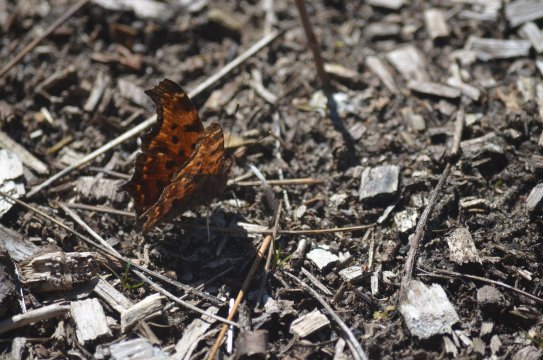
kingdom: Animalia
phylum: Arthropoda
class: Insecta
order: Lepidoptera
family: Nymphalidae
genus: Polygonia
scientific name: Polygonia comma
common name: Eastern Comma
